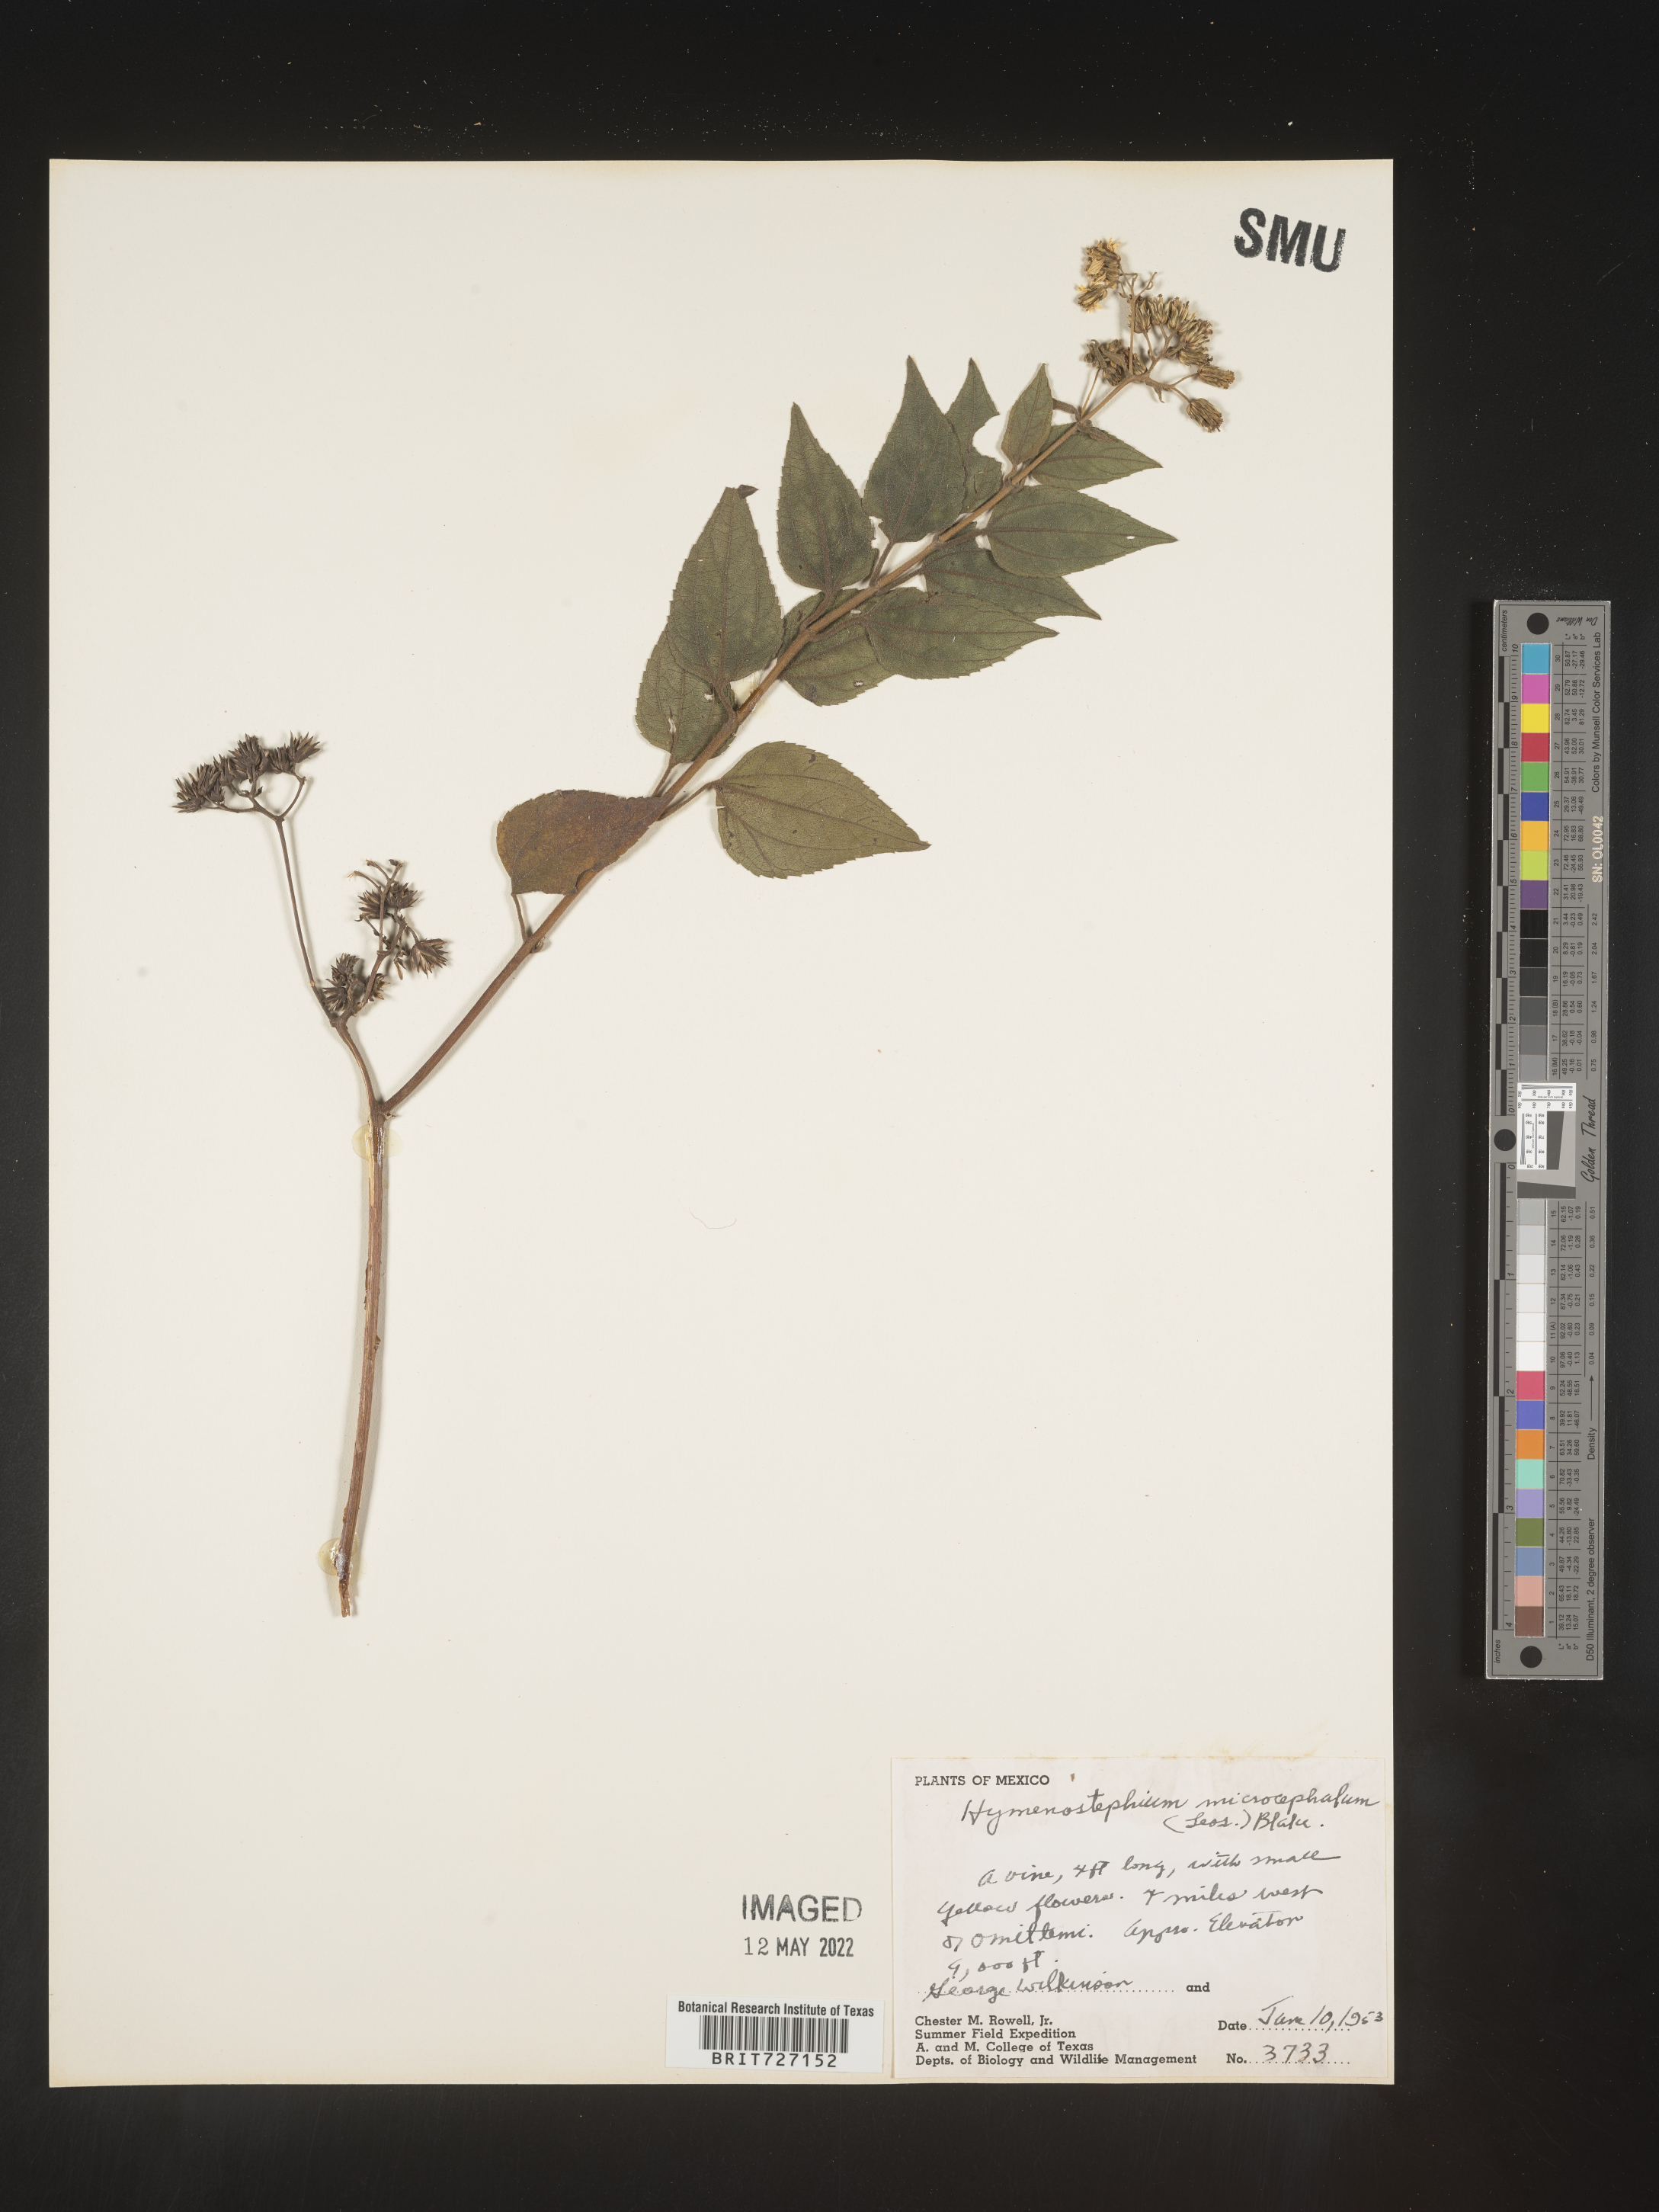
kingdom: Plantae
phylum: Tracheophyta
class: Magnoliopsida
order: Asterales
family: Asteraceae
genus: Hymenostephium
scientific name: Hymenostephium
